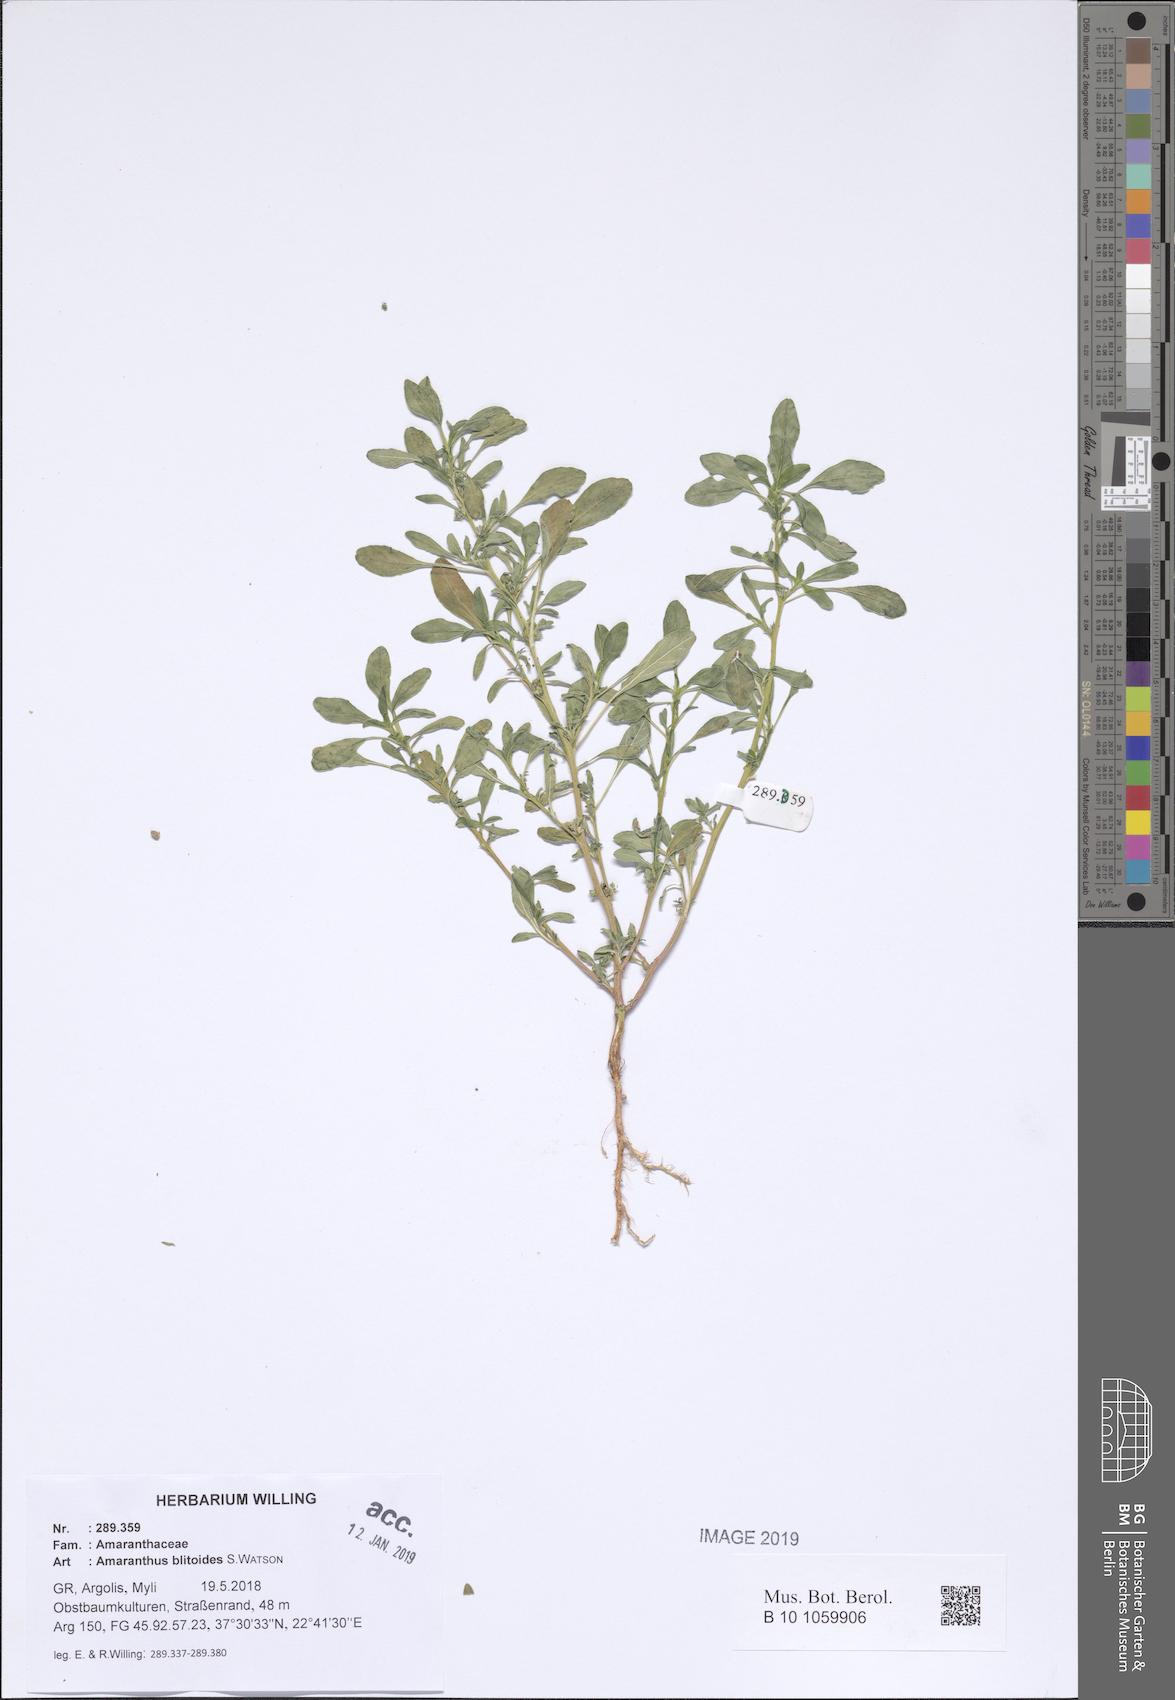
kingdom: Plantae
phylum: Tracheophyta
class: Magnoliopsida
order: Caryophyllales
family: Amaranthaceae
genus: Amaranthus
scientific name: Amaranthus blitoides
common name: Prostrate pigweed
